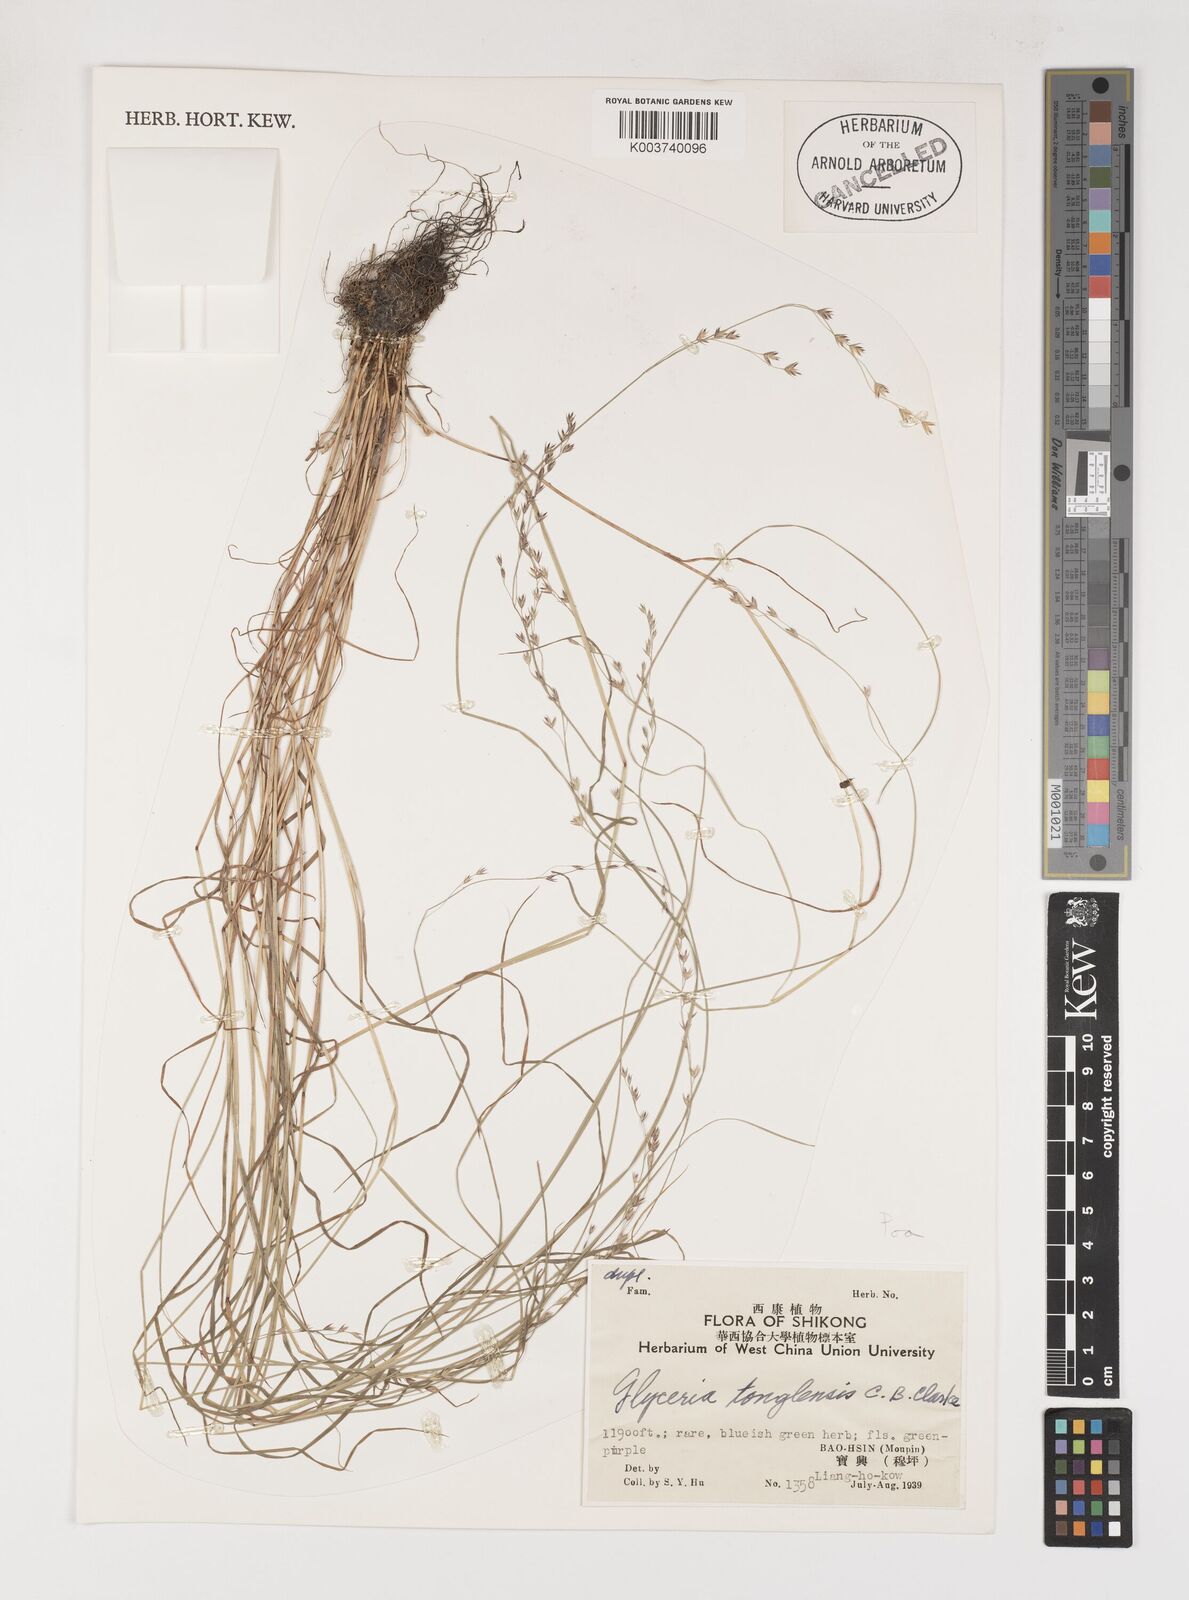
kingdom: Plantae
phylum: Tracheophyta
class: Liliopsida
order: Poales
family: Poaceae
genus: Poa
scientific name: Poa
